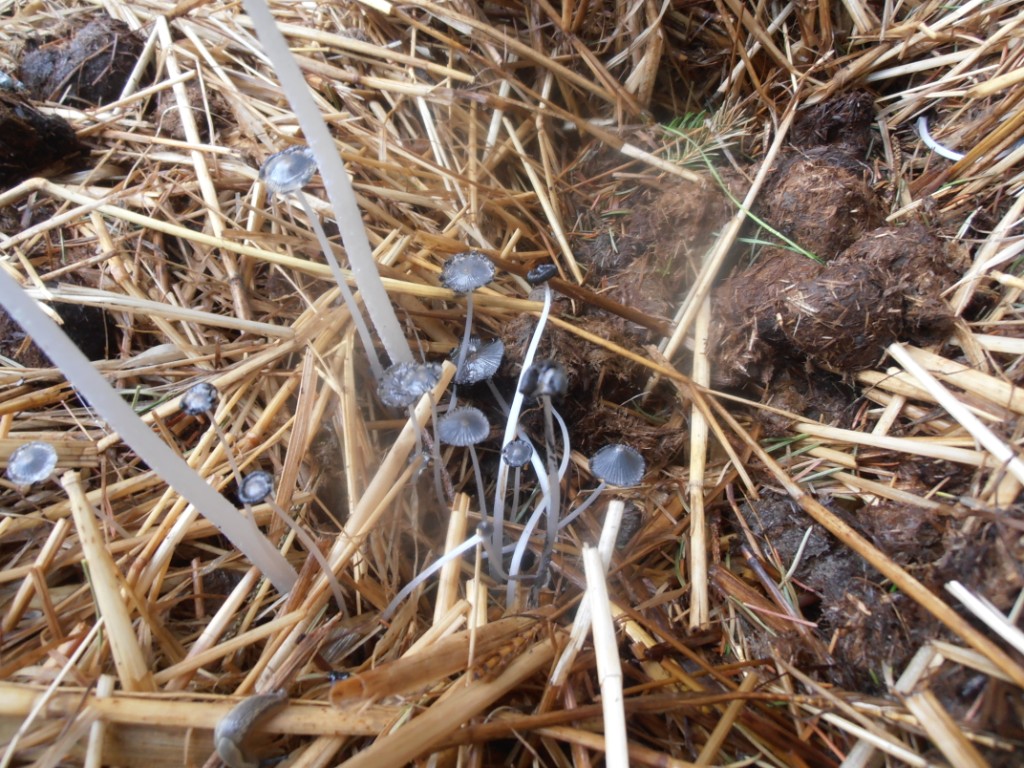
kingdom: Fungi
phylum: Basidiomycota
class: Agaricomycetes
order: Agaricales
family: Psathyrellaceae
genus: Coprinopsis
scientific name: Coprinopsis macrocephala
